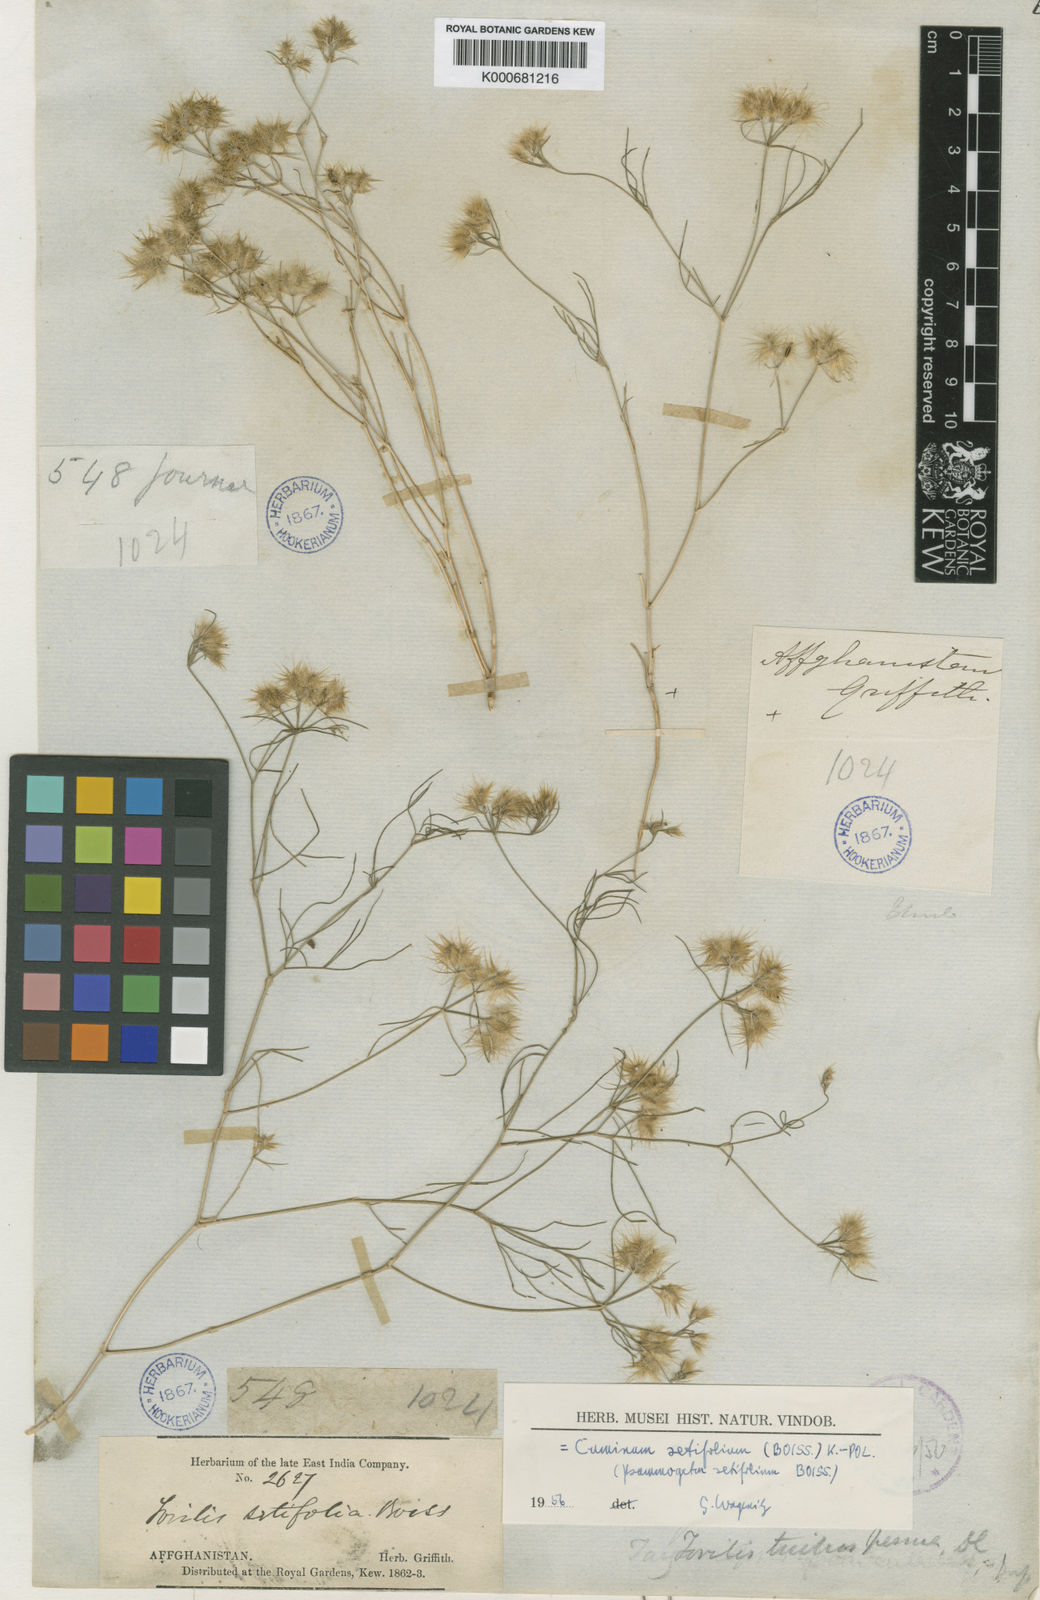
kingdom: Plantae
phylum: Tracheophyta
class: Magnoliopsida
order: Apiales
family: Apiaceae
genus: Cuminum
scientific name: Cuminum setifolium
